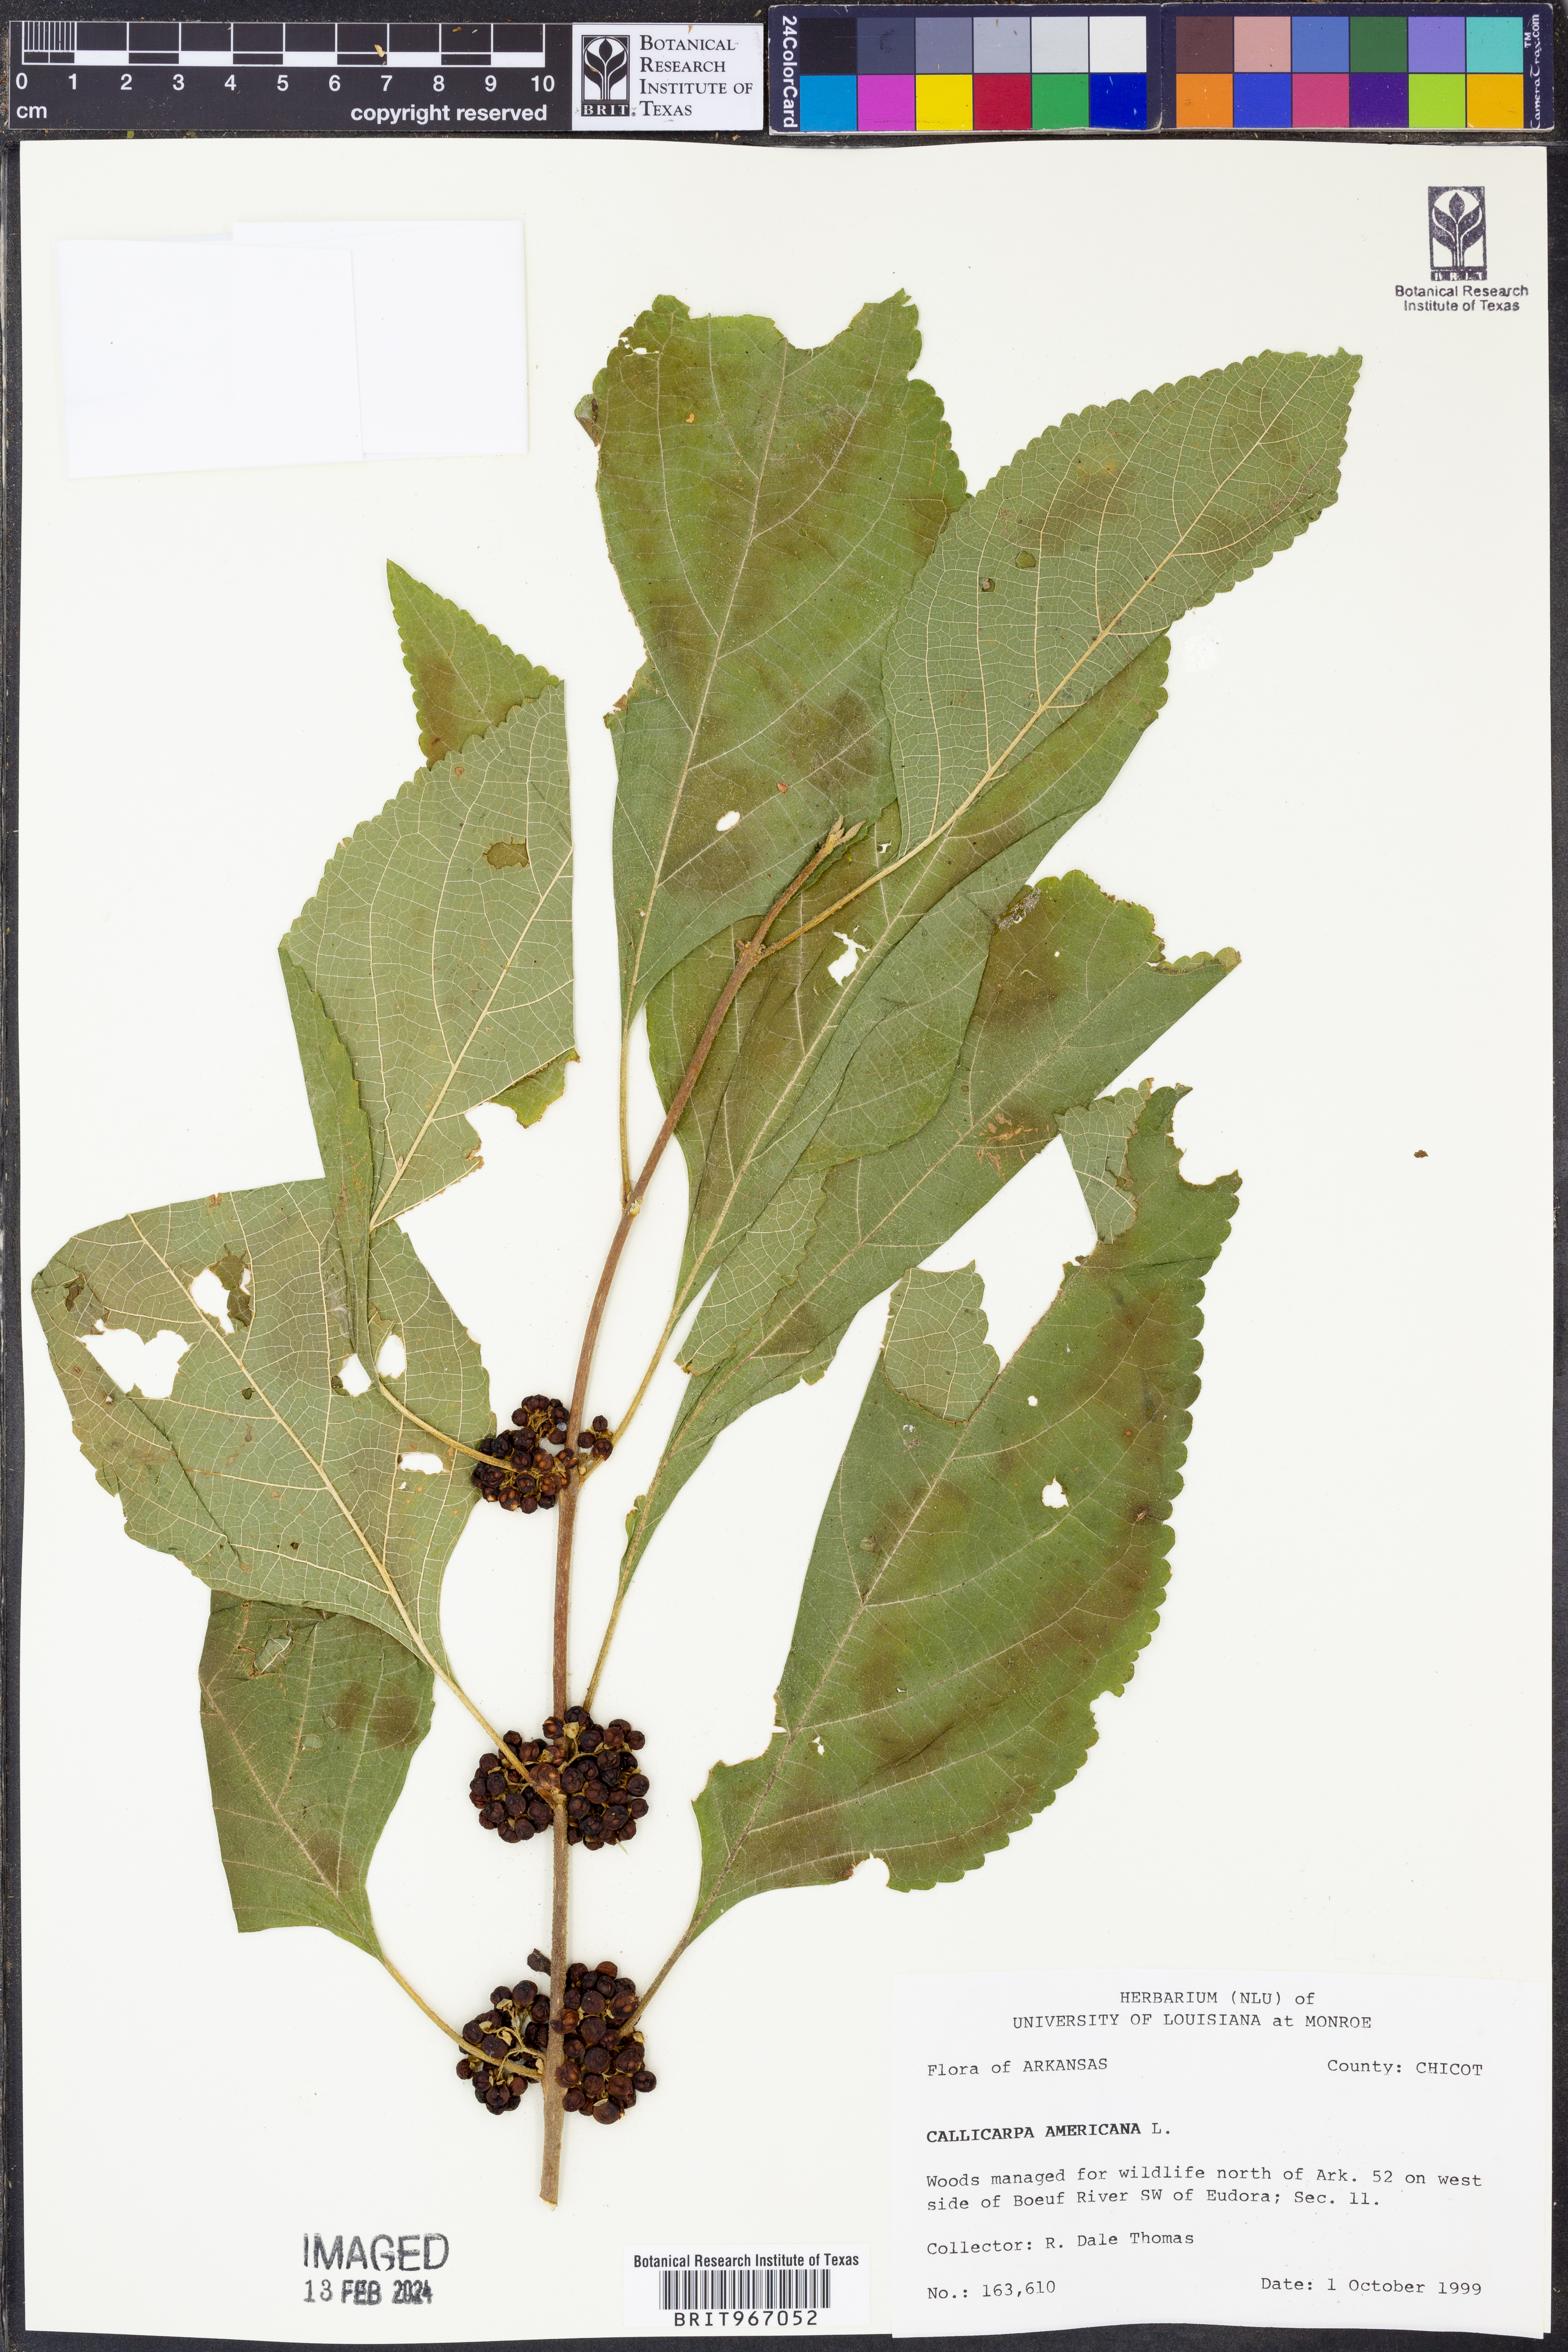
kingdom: Plantae
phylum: Tracheophyta
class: Magnoliopsida
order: Lamiales
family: Lamiaceae
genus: Callicarpa
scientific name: Callicarpa americana
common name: American beautyberry
